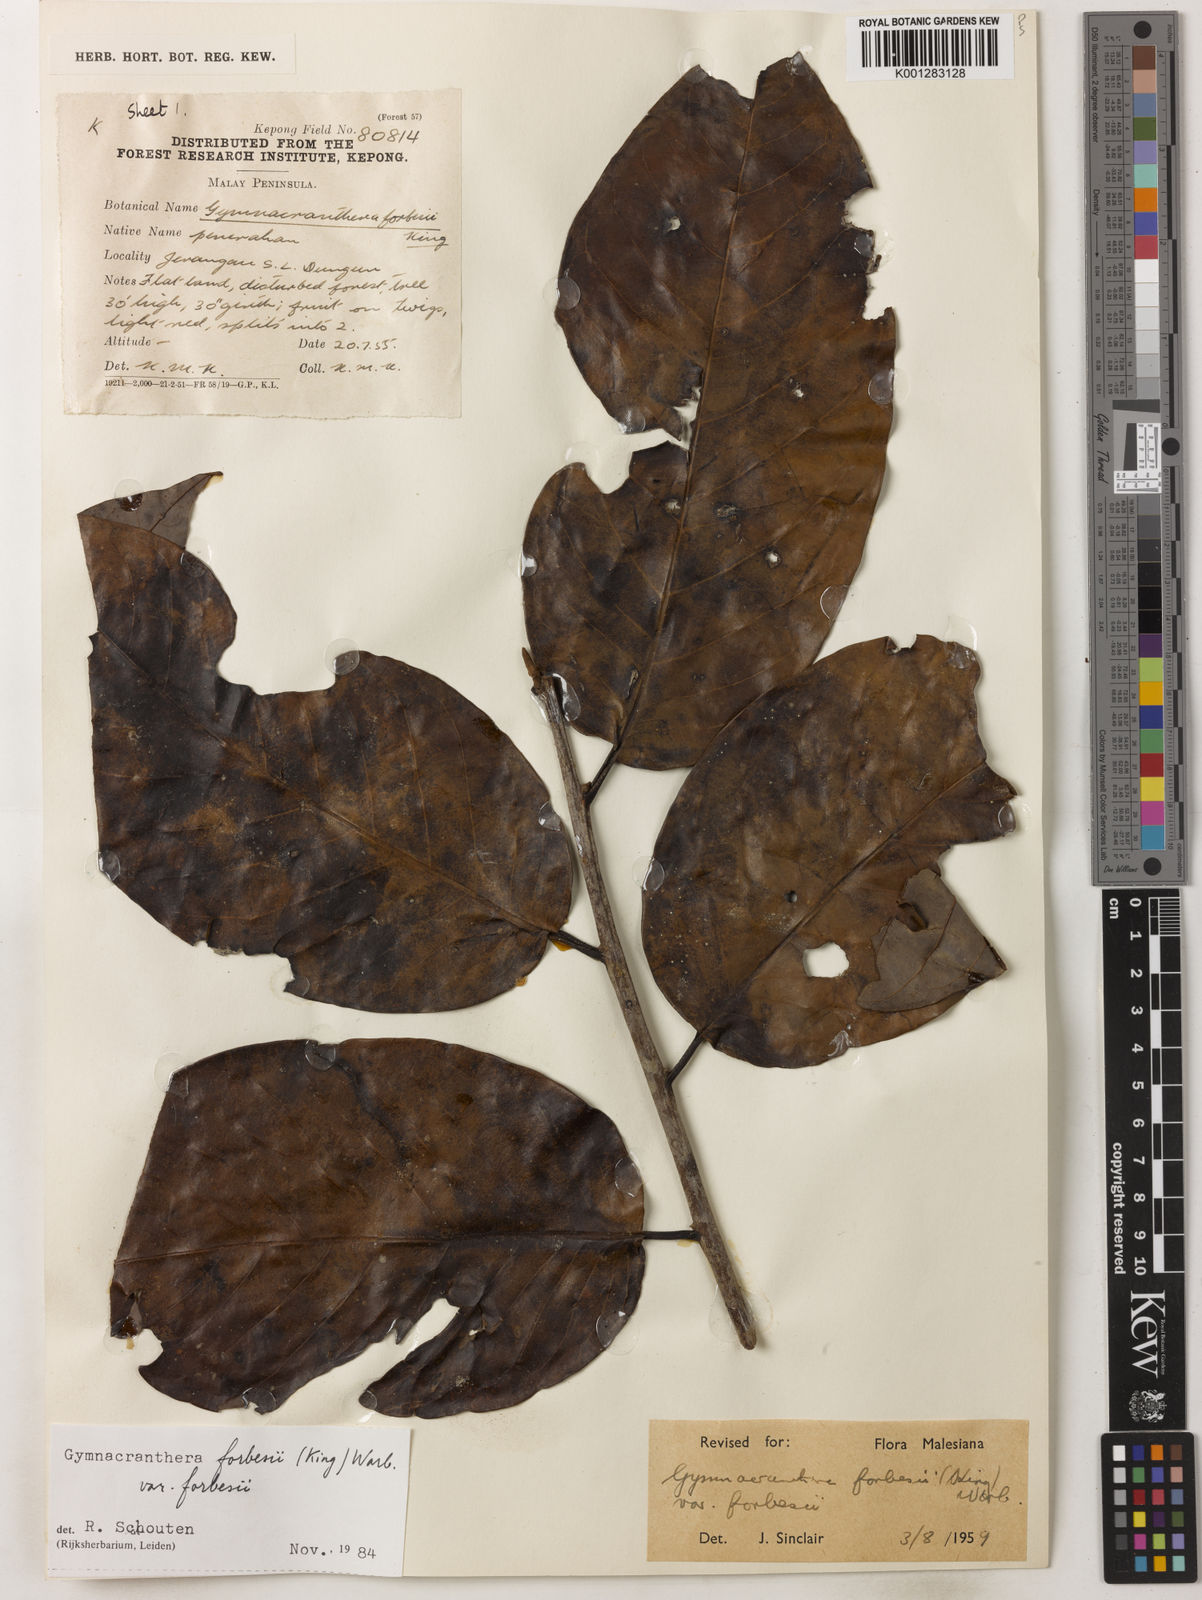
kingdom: Plantae
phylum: Tracheophyta
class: Magnoliopsida
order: Magnoliales
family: Myristicaceae
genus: Gymnacranthera
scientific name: Gymnacranthera forbesii
